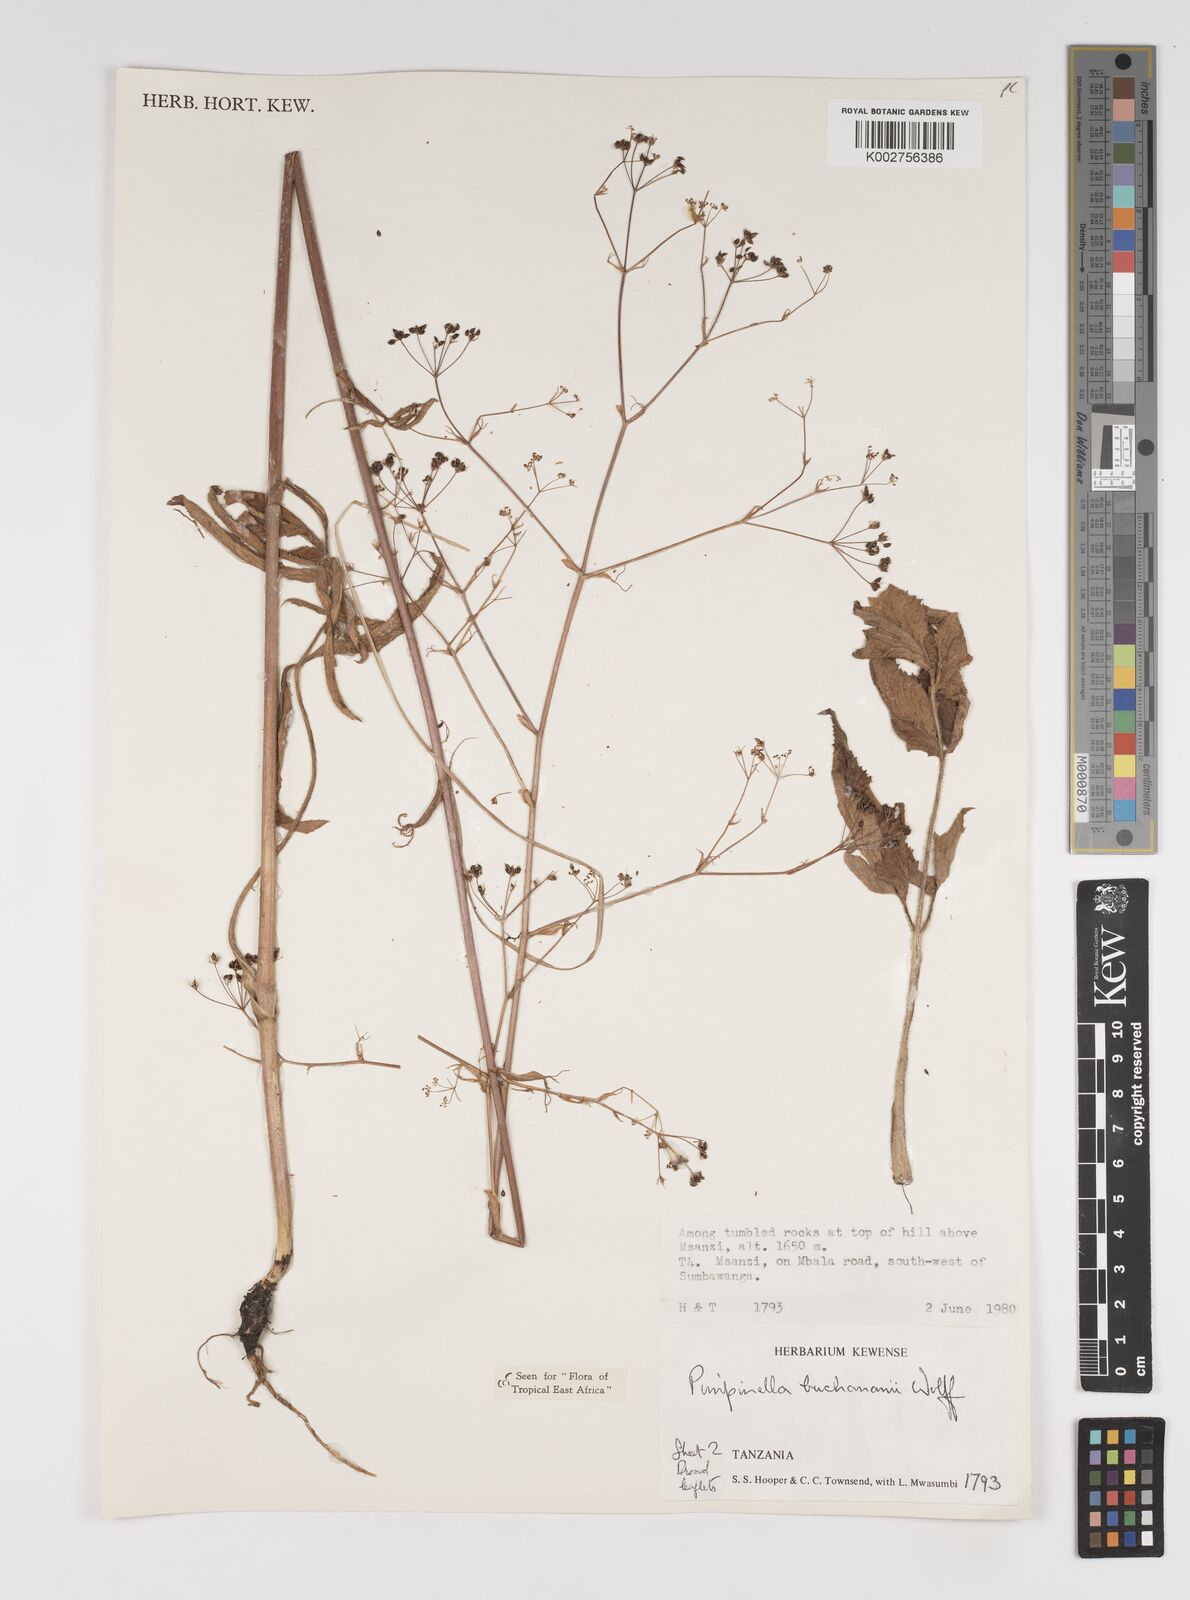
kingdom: Plantae
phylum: Tracheophyta
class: Magnoliopsida
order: Apiales
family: Apiaceae
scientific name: Apiaceae
